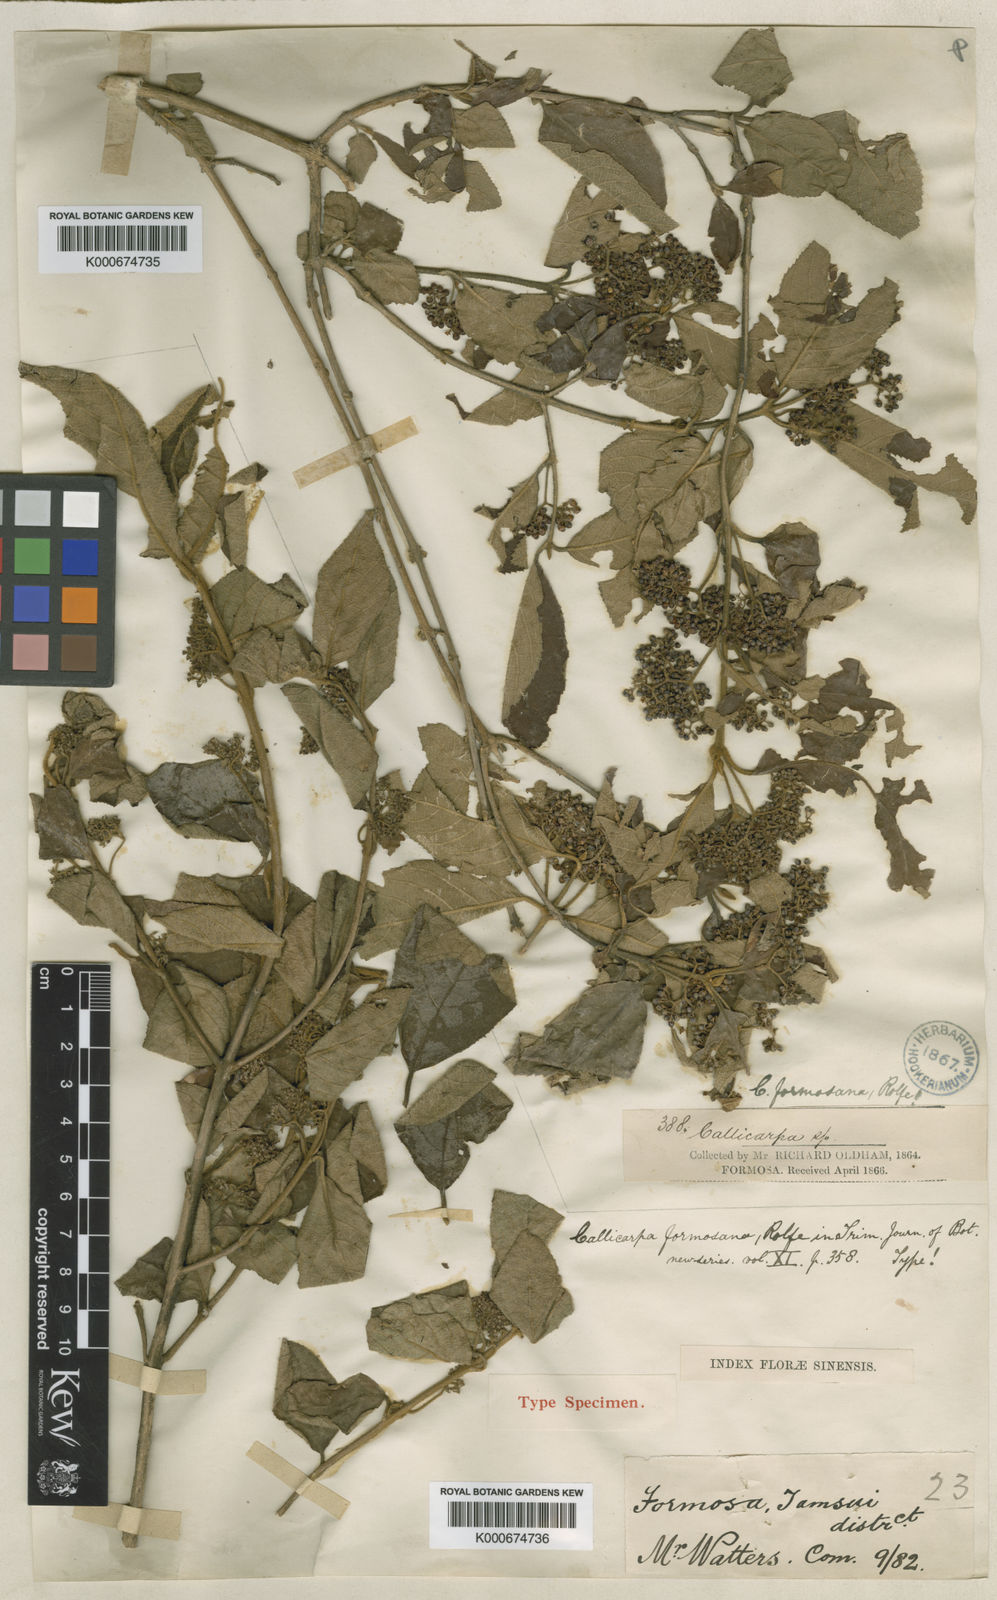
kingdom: Plantae
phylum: Tracheophyta
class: Magnoliopsida
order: Lamiales
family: Lamiaceae
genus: Callicarpa
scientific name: Callicarpa pedunculata
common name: Velvetleaf
